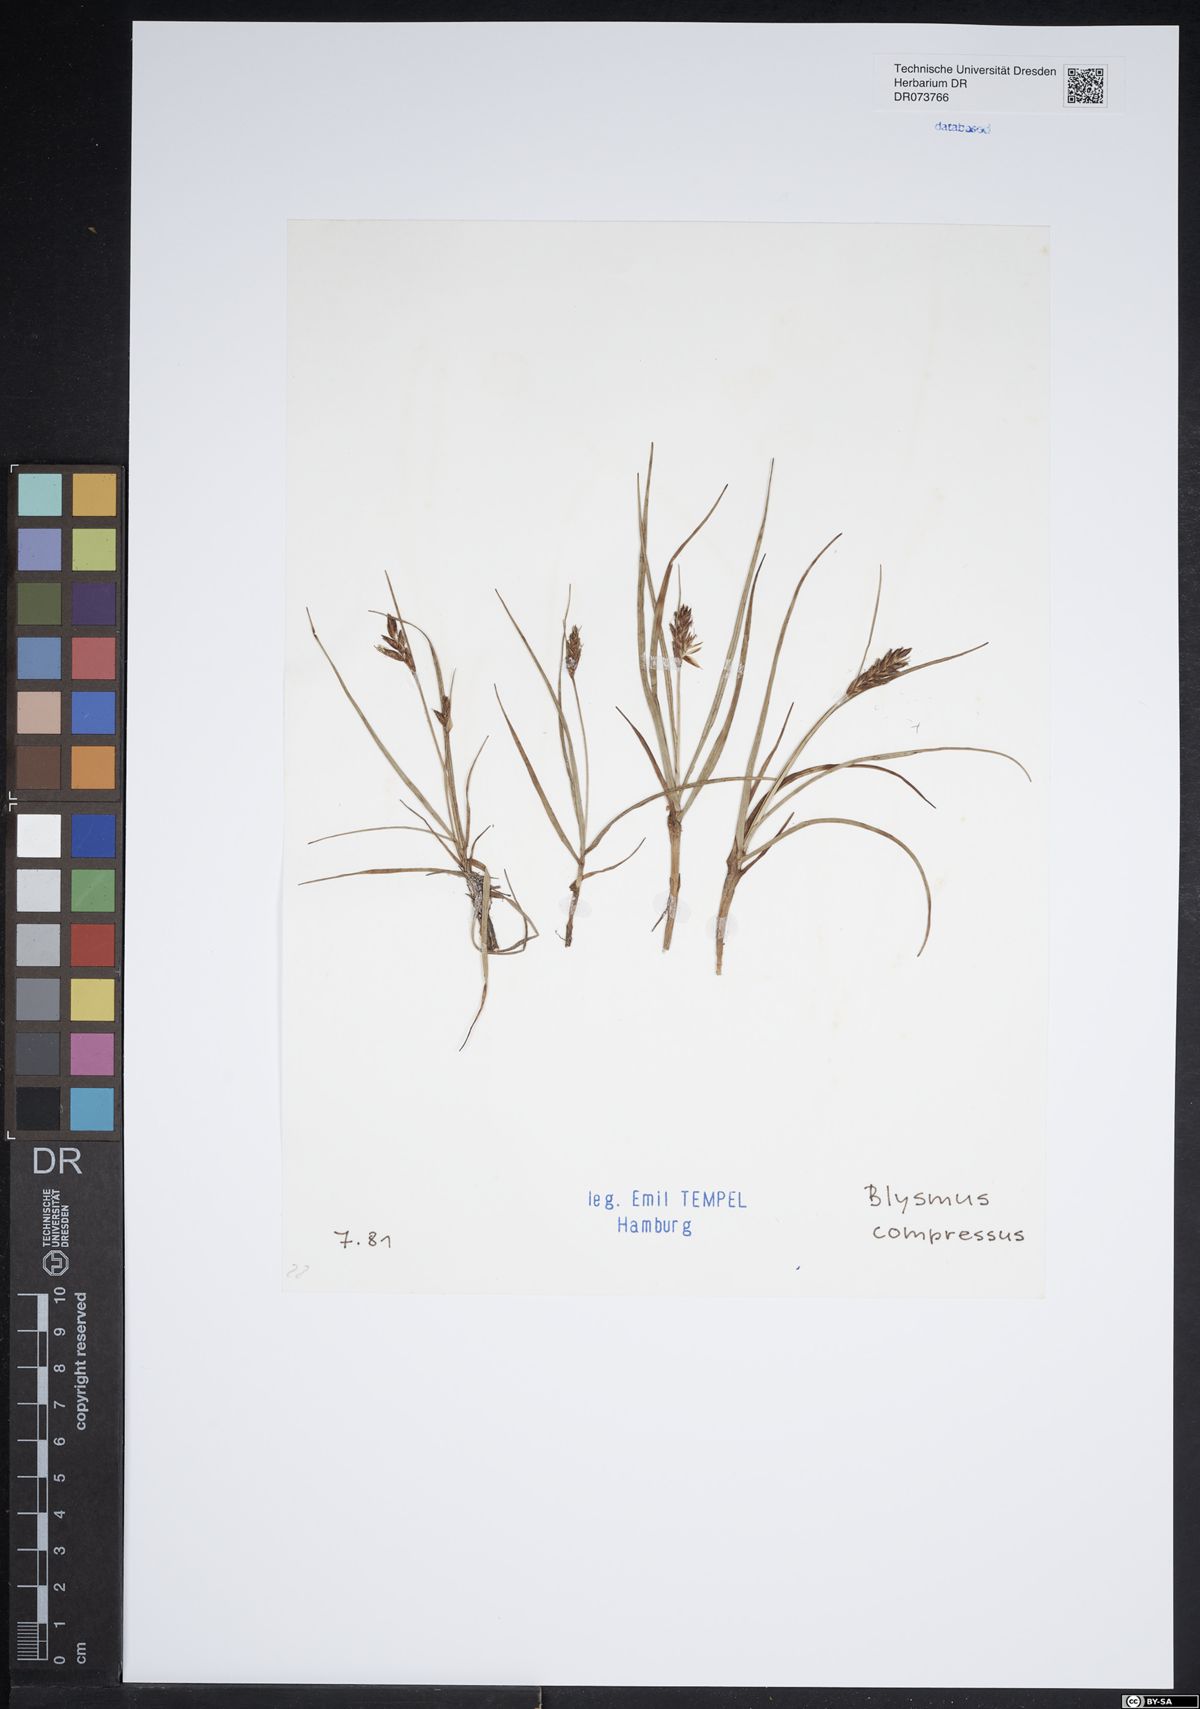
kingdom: Plantae
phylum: Tracheophyta
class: Liliopsida
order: Poales
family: Cyperaceae
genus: Blysmus
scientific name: Blysmus compressus
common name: Flat-sedge
